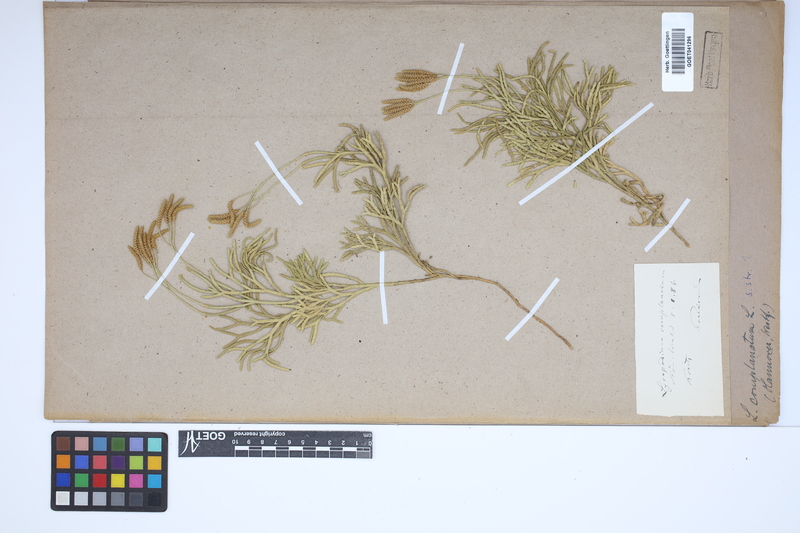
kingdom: Plantae
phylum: Tracheophyta
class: Lycopodiopsida
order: Lycopodiales
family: Lycopodiaceae
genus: Diphasiastrum
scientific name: Diphasiastrum zeilleri
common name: Zeiller's clubmoss
